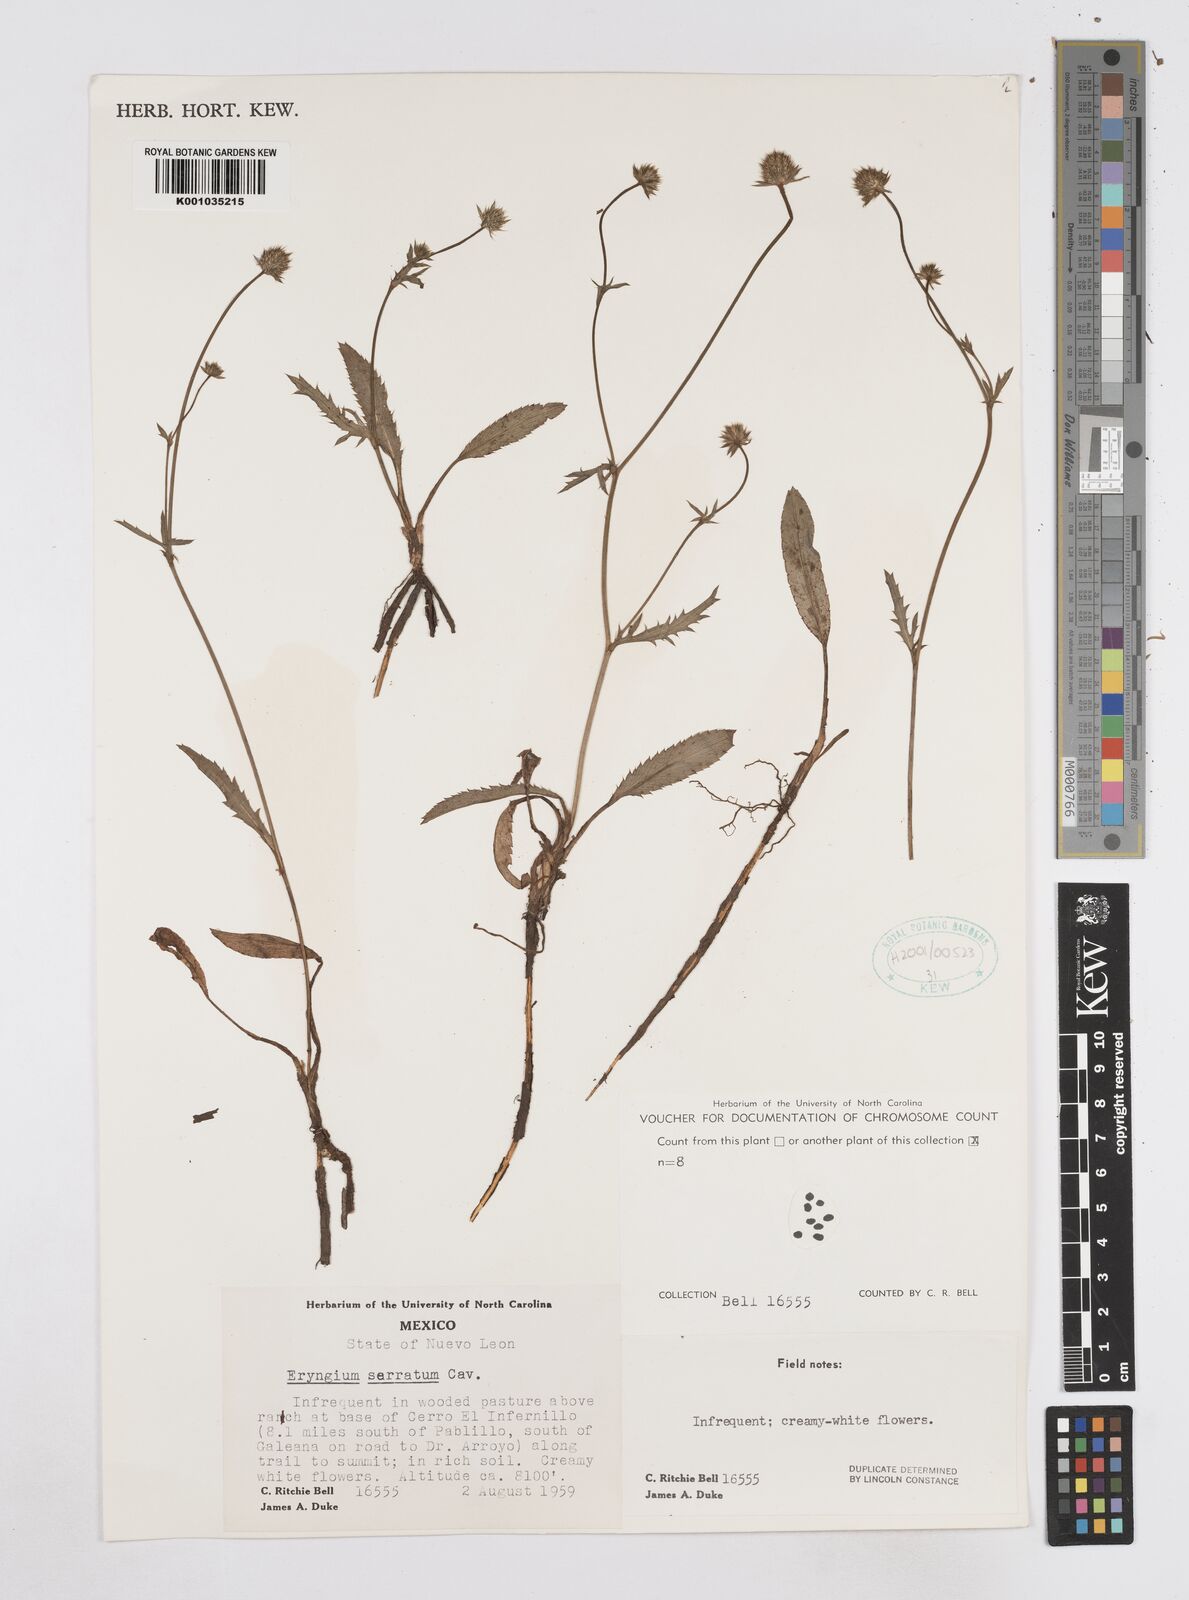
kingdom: Plantae
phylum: Tracheophyta
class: Magnoliopsida
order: Apiales
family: Apiaceae
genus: Eryngium
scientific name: Eryngium serratum
